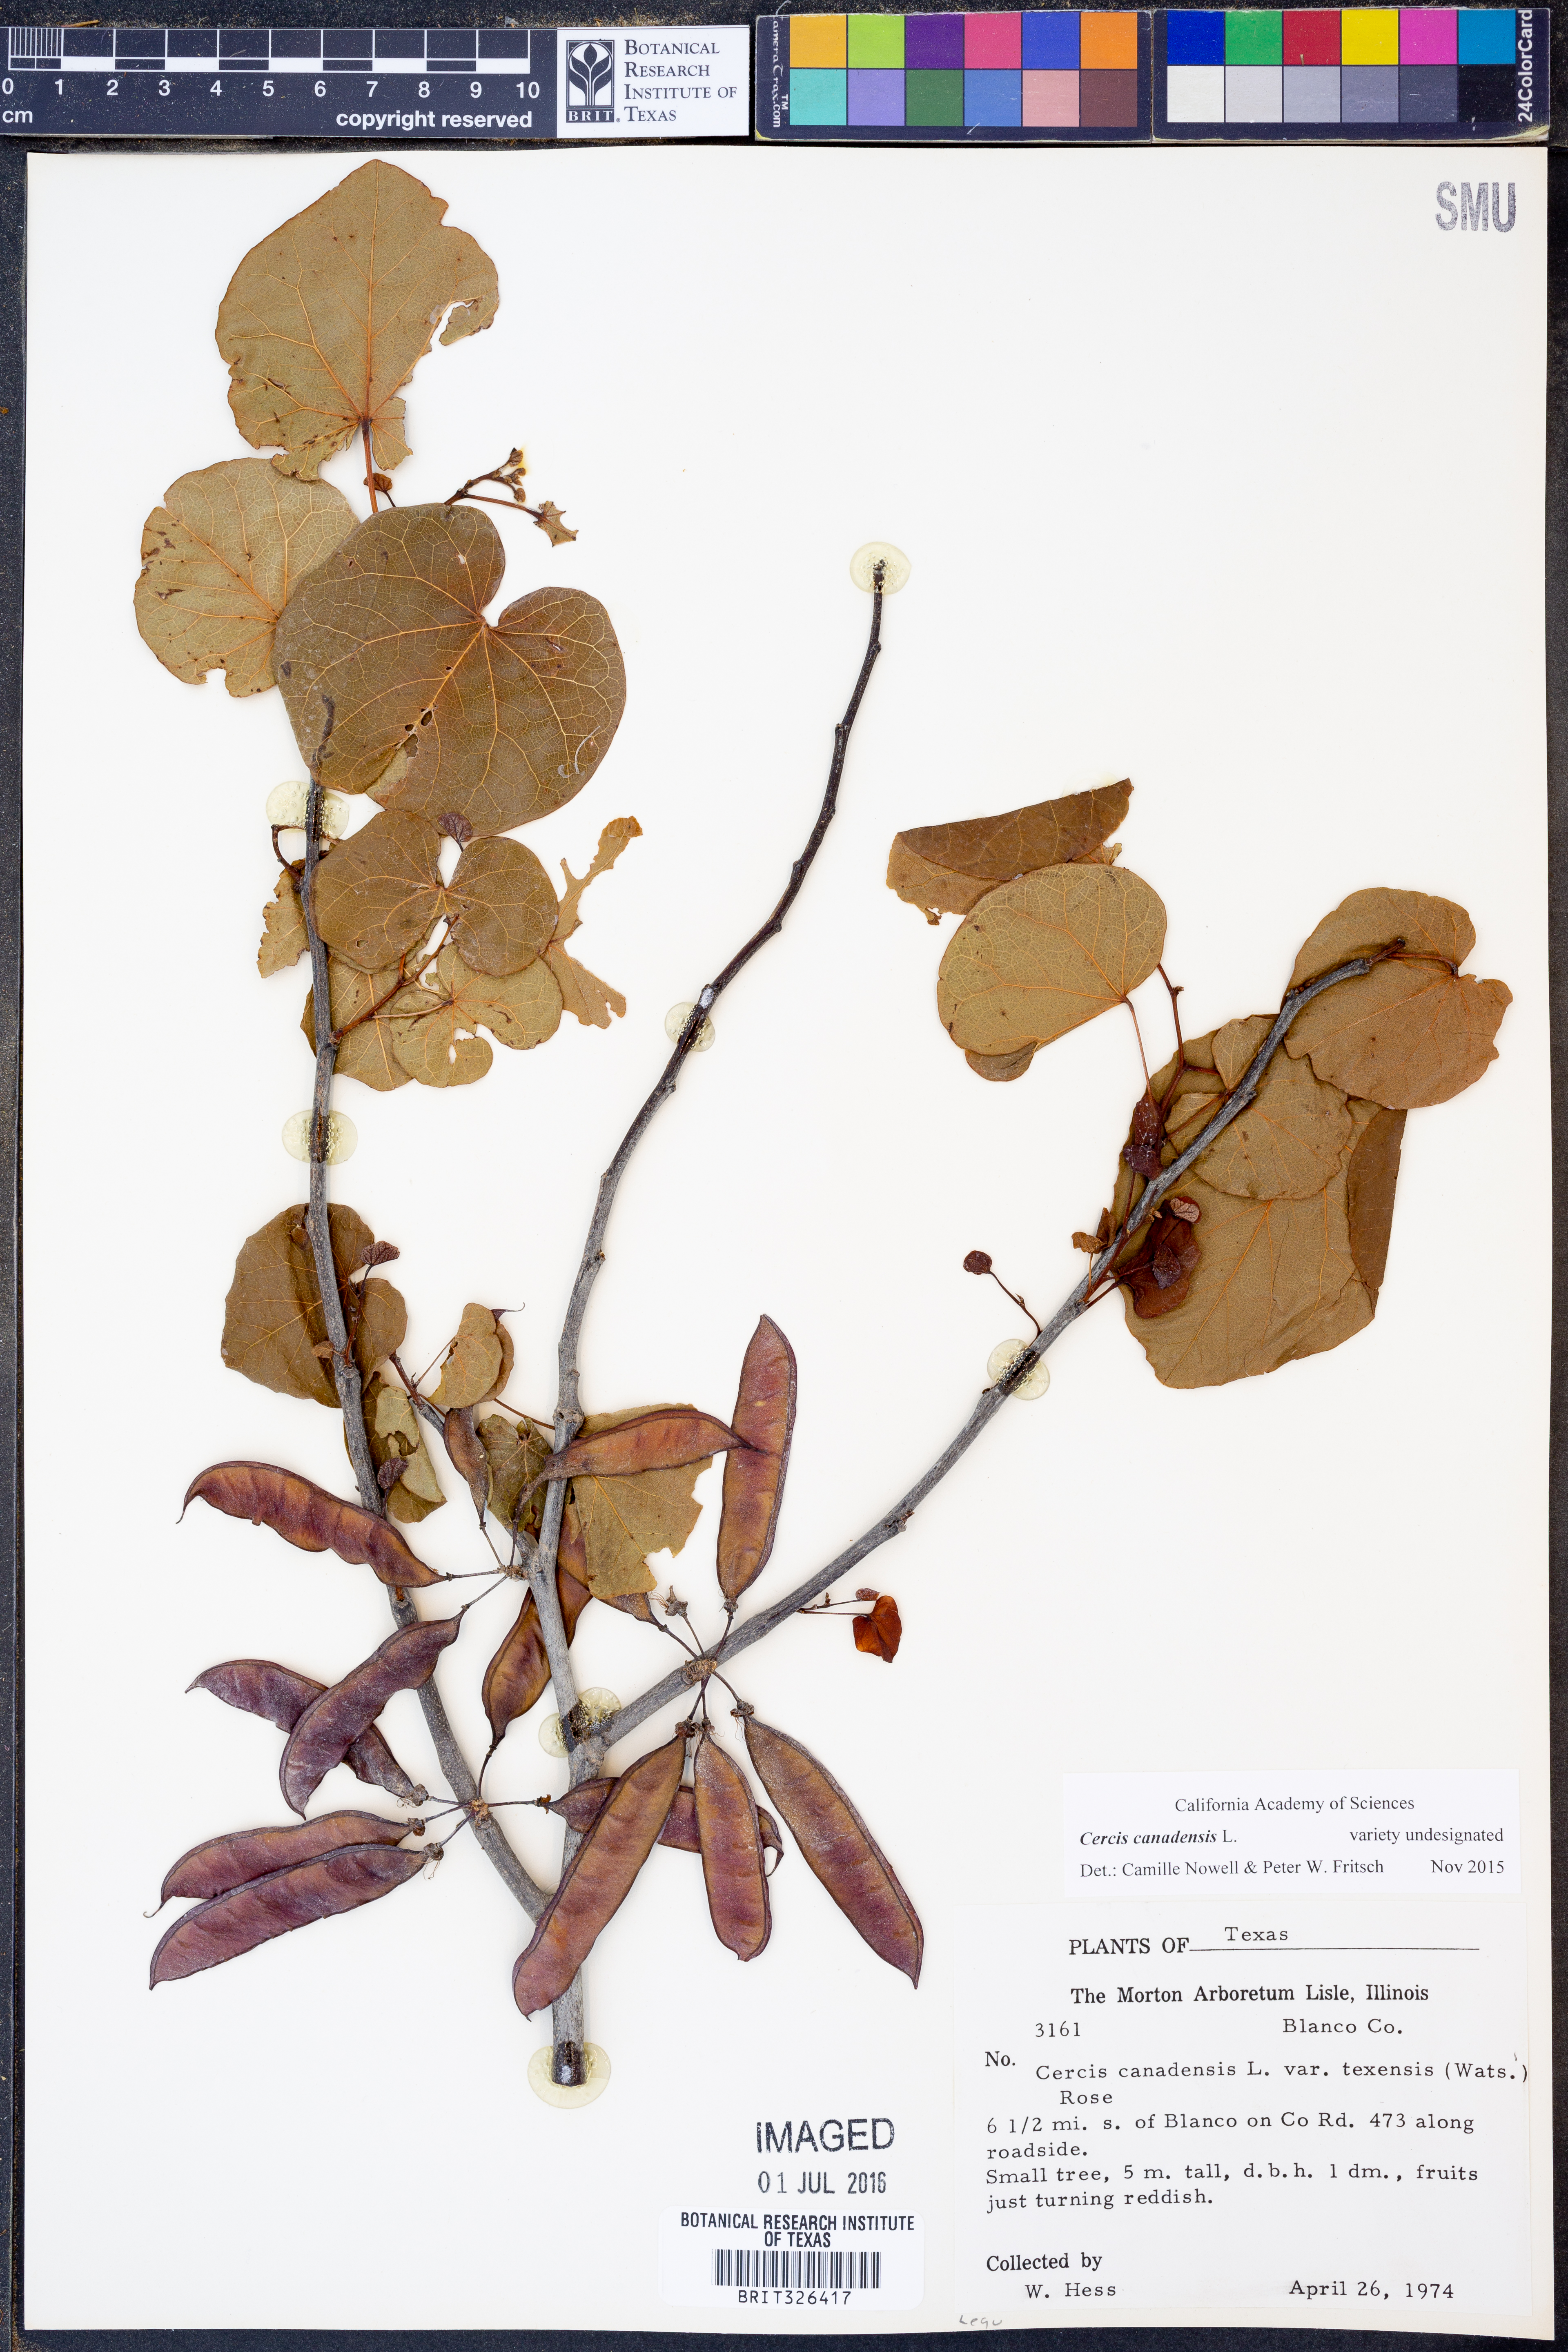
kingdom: Plantae
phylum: Tracheophyta
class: Magnoliopsida
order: Fabales
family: Fabaceae
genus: Cercis
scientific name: Cercis canadensis
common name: Eastern redbud
